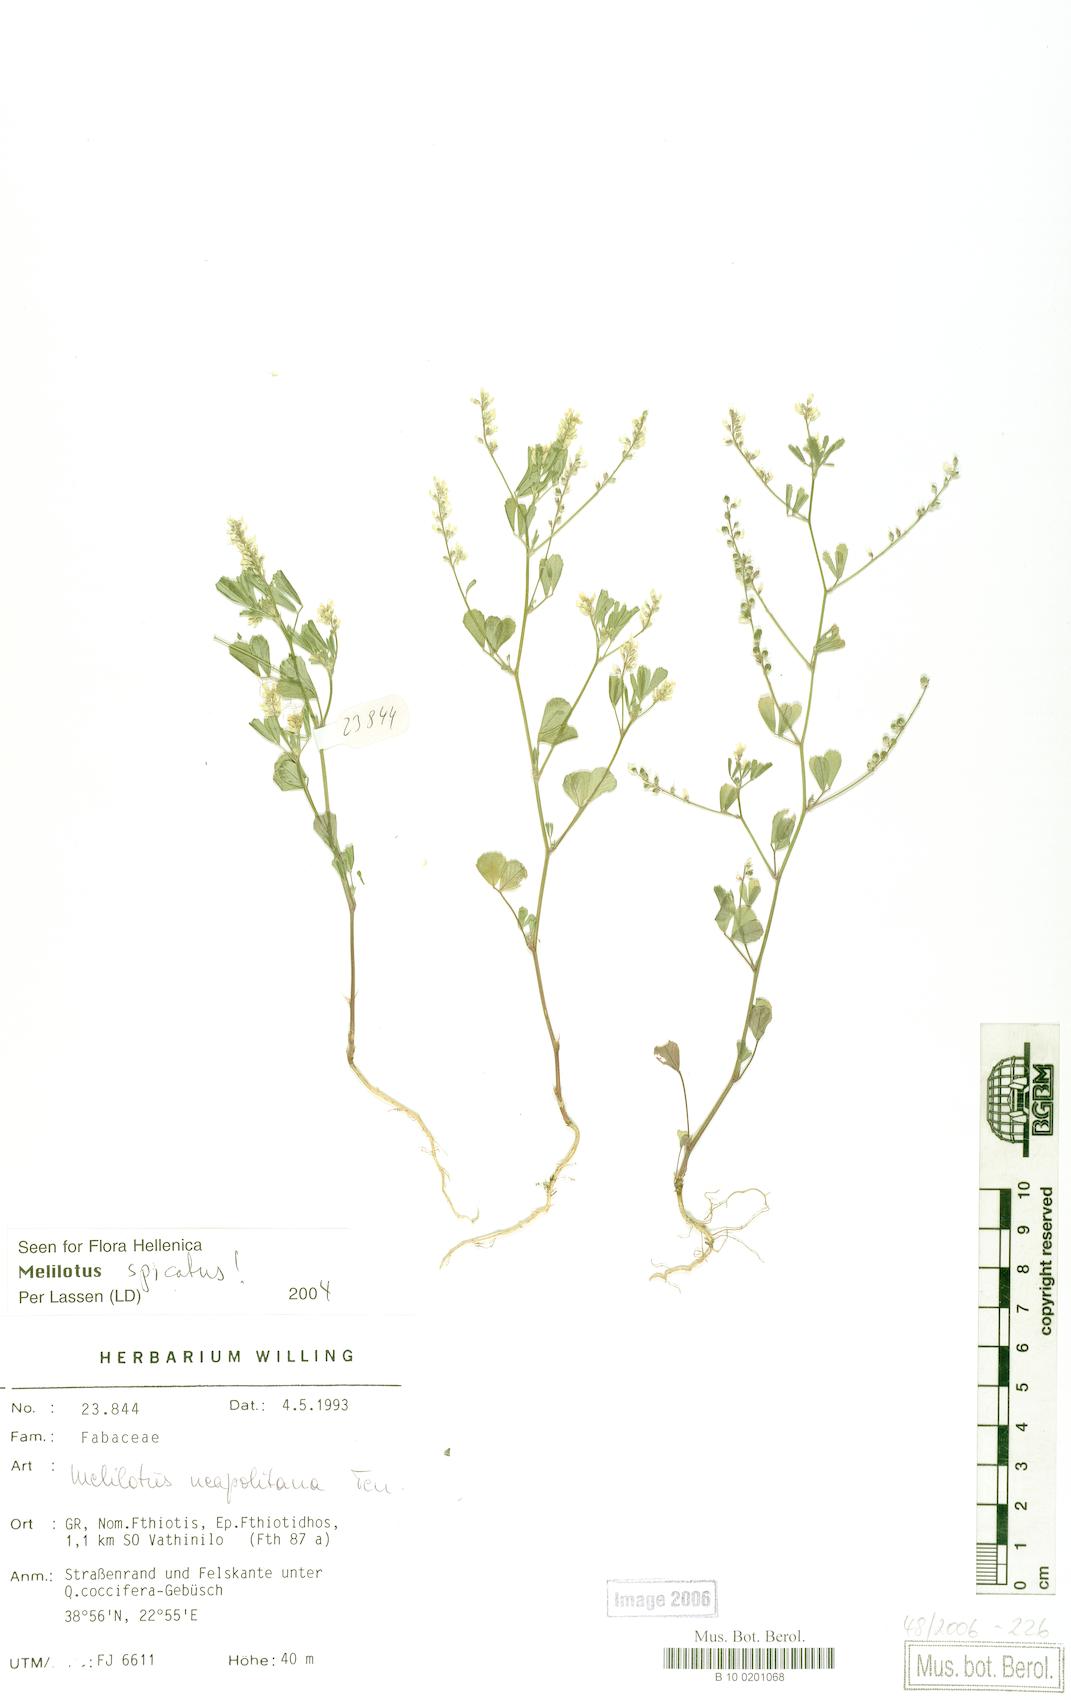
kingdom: Plantae
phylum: Tracheophyta
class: Magnoliopsida
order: Fabales
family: Fabaceae
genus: Melilotus
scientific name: Melilotus neapolitanus
